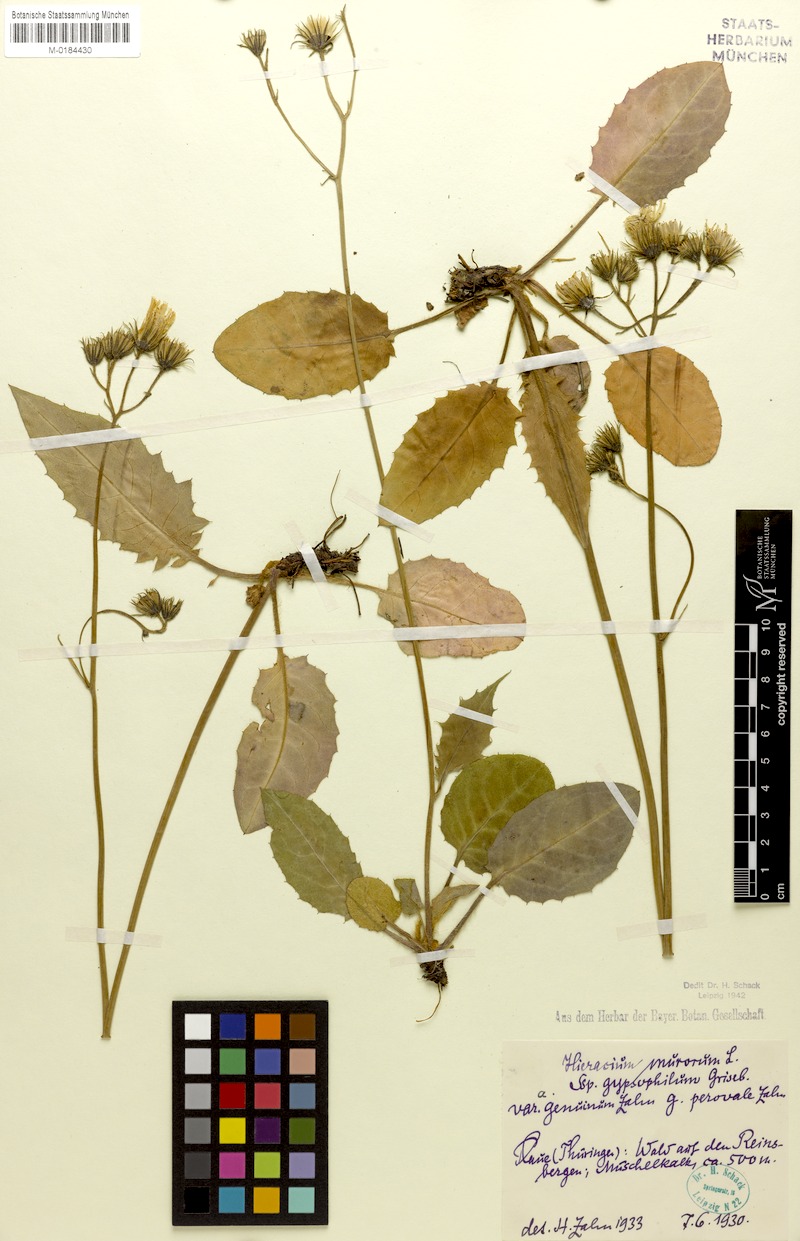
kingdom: Plantae
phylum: Tracheophyta
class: Magnoliopsida
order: Asterales
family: Asteraceae
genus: Hieracium
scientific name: Hieracium murorum
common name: Wall hawkweed
